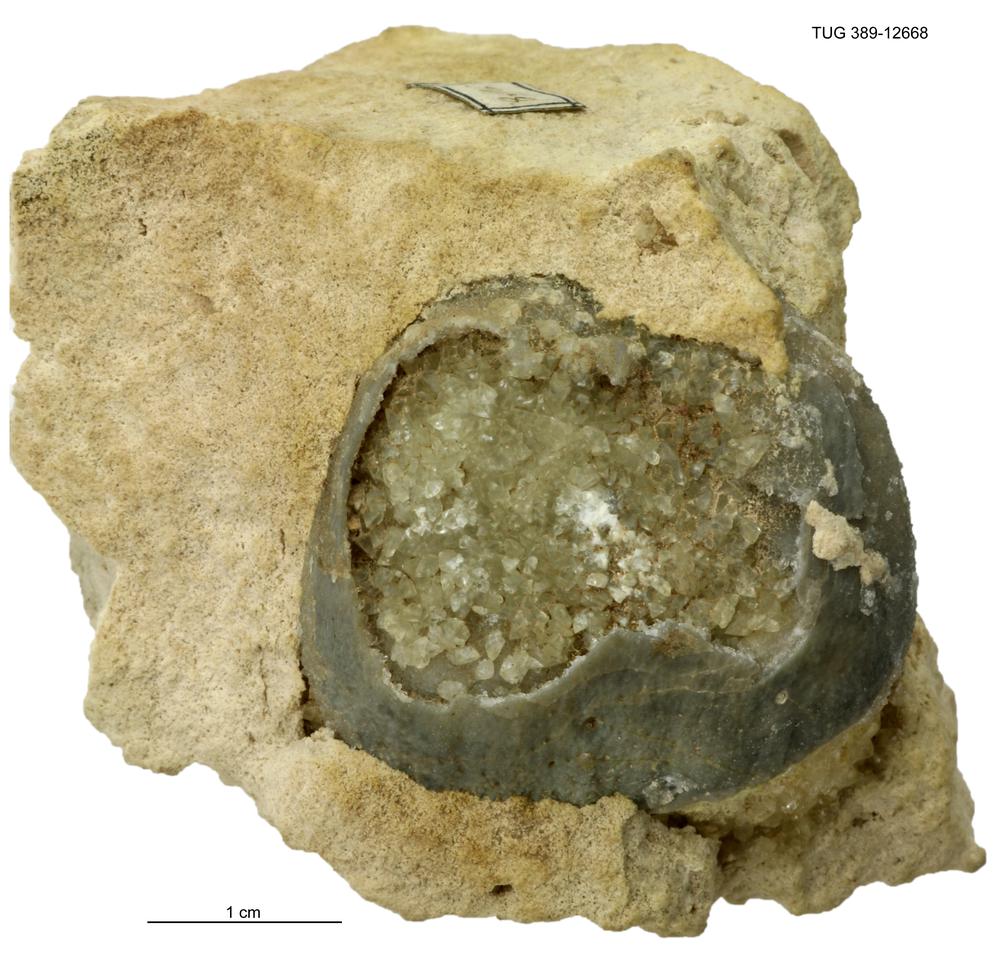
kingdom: Animalia
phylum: Brachiopoda
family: Strophomenidae
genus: Katastrophomena
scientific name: Katastrophomena Strophomena antiquata
